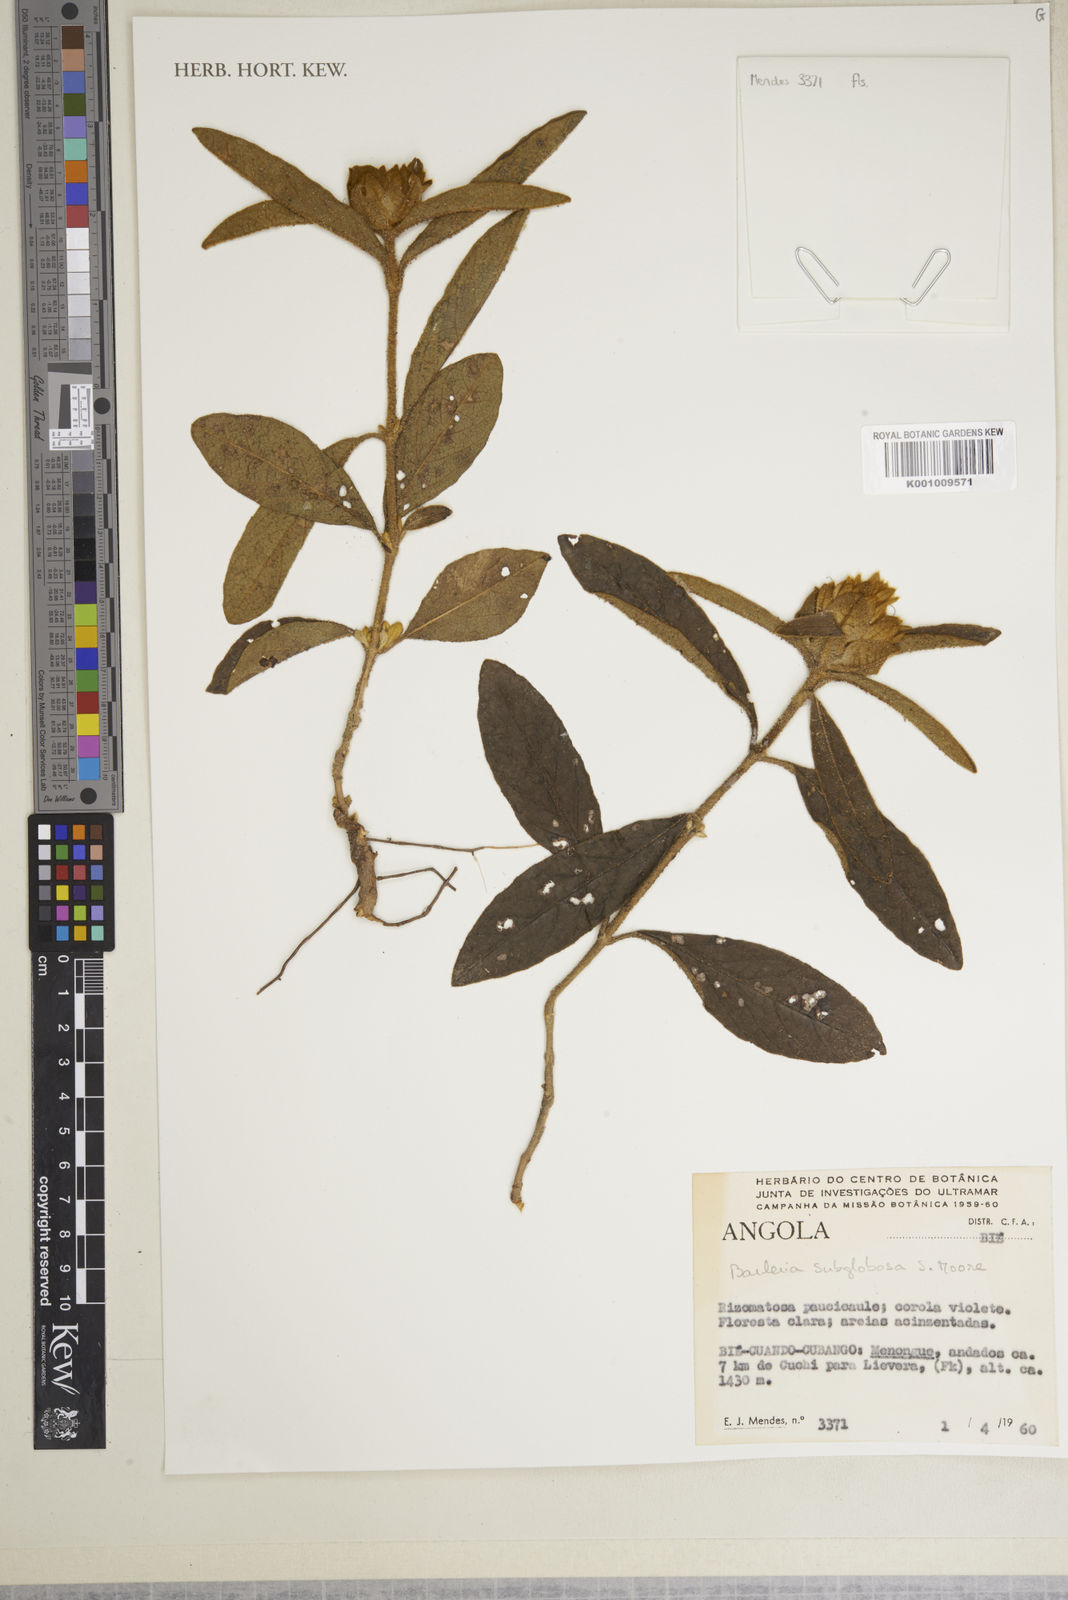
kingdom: Plantae
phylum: Tracheophyta
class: Magnoliopsida
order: Lamiales
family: Acanthaceae
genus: Barleria
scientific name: Barleria subglobosa
